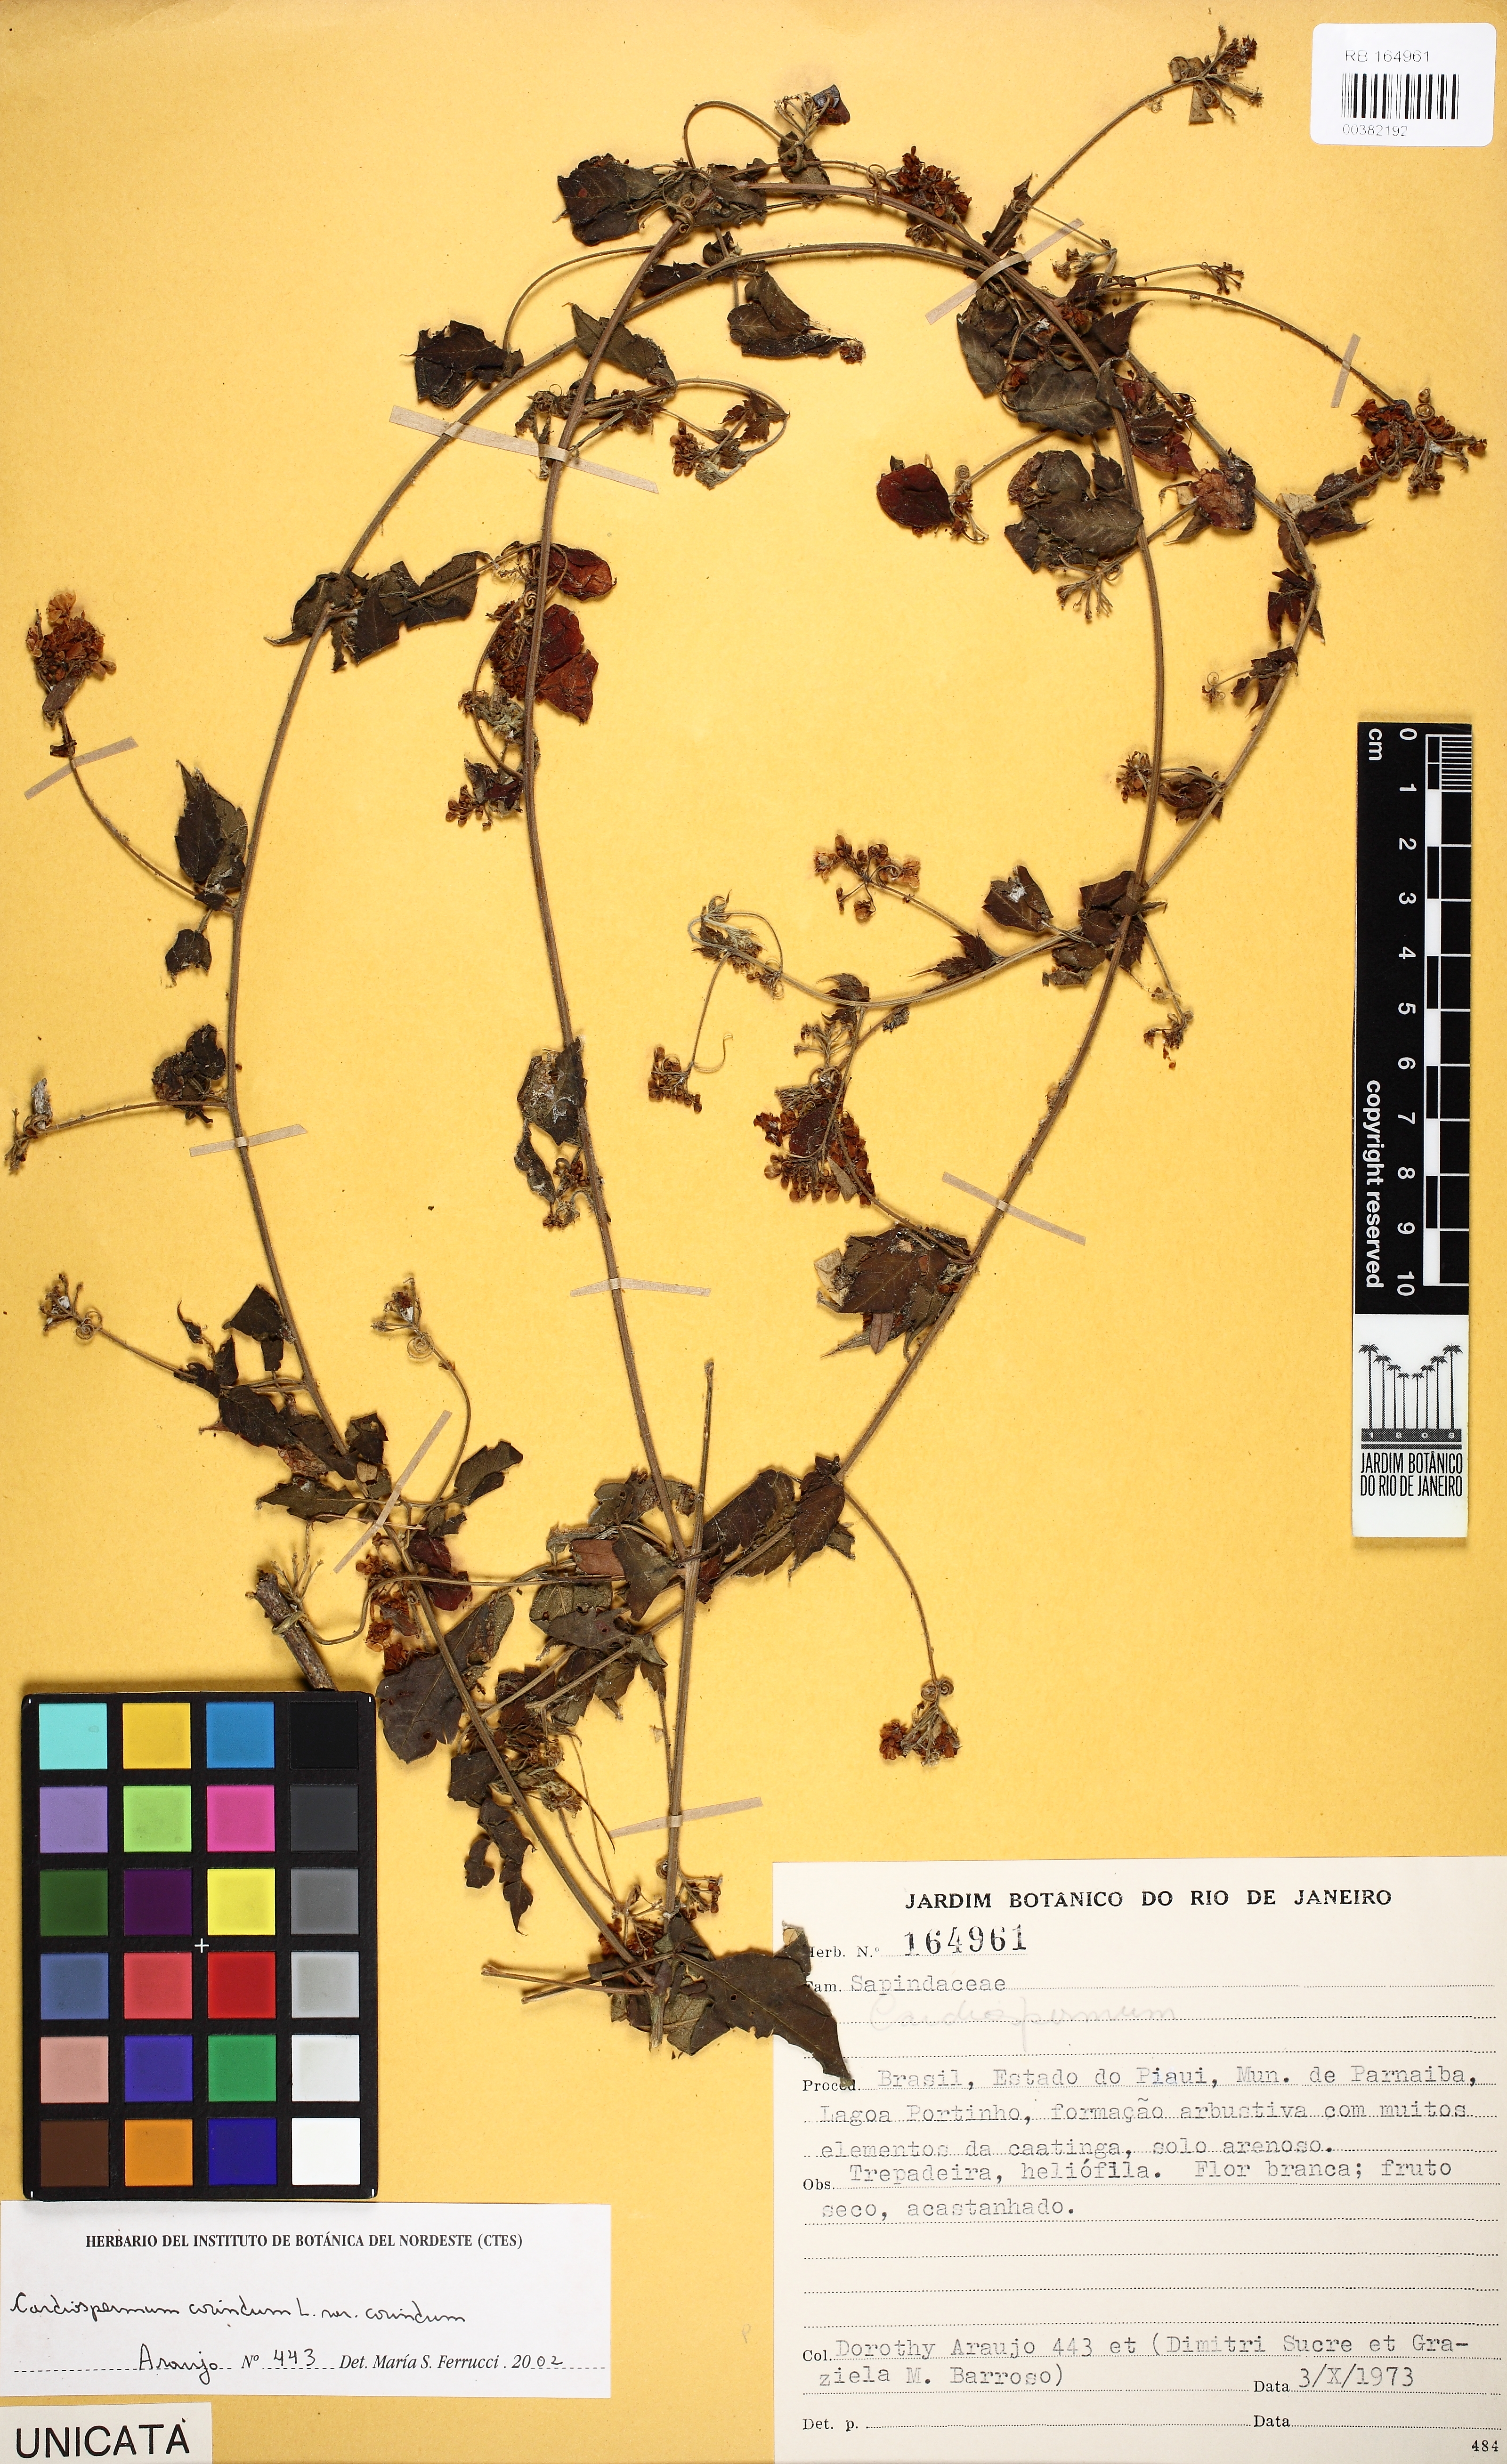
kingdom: Plantae
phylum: Tracheophyta
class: Magnoliopsida
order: Sapindales
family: Sapindaceae
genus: Cardiospermum
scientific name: Cardiospermum corindum
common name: Faux persil
